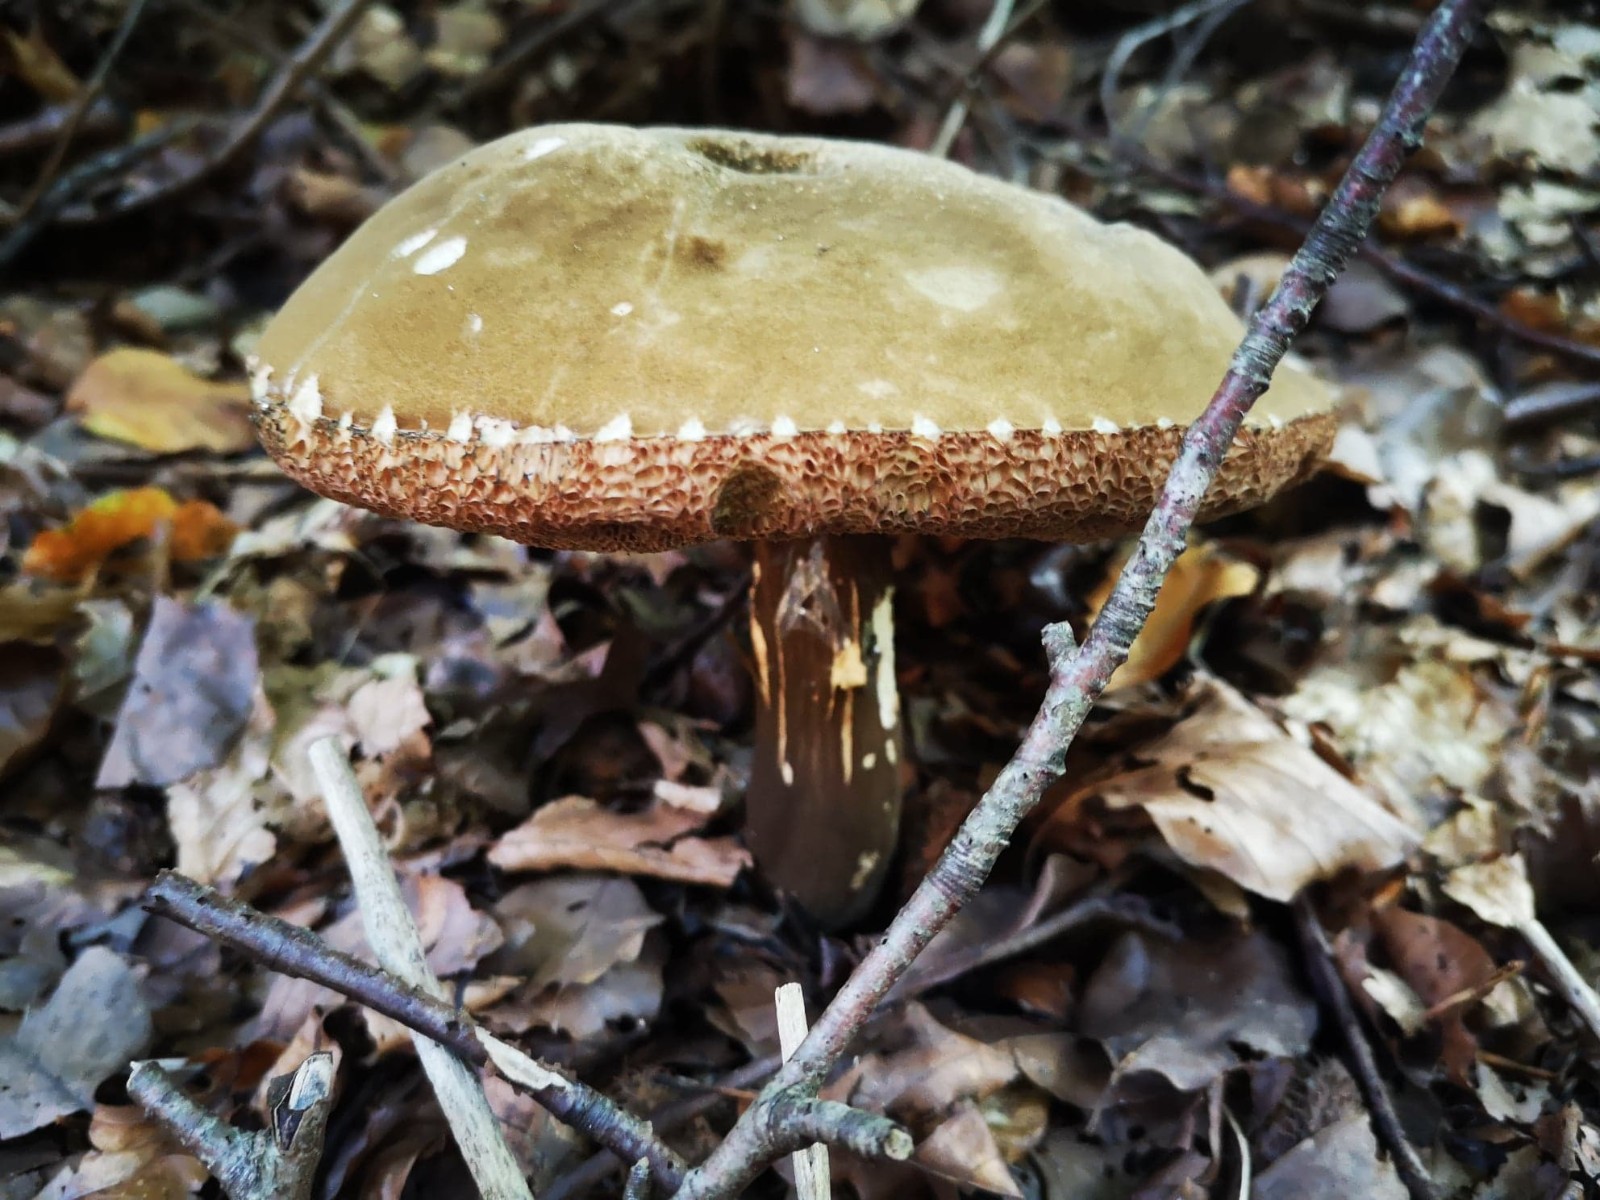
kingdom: Fungi
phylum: Basidiomycota
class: Agaricomycetes
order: Boletales
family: Boletaceae
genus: Porphyrellus
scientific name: Porphyrellus porphyrosporus
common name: sodrørhat
